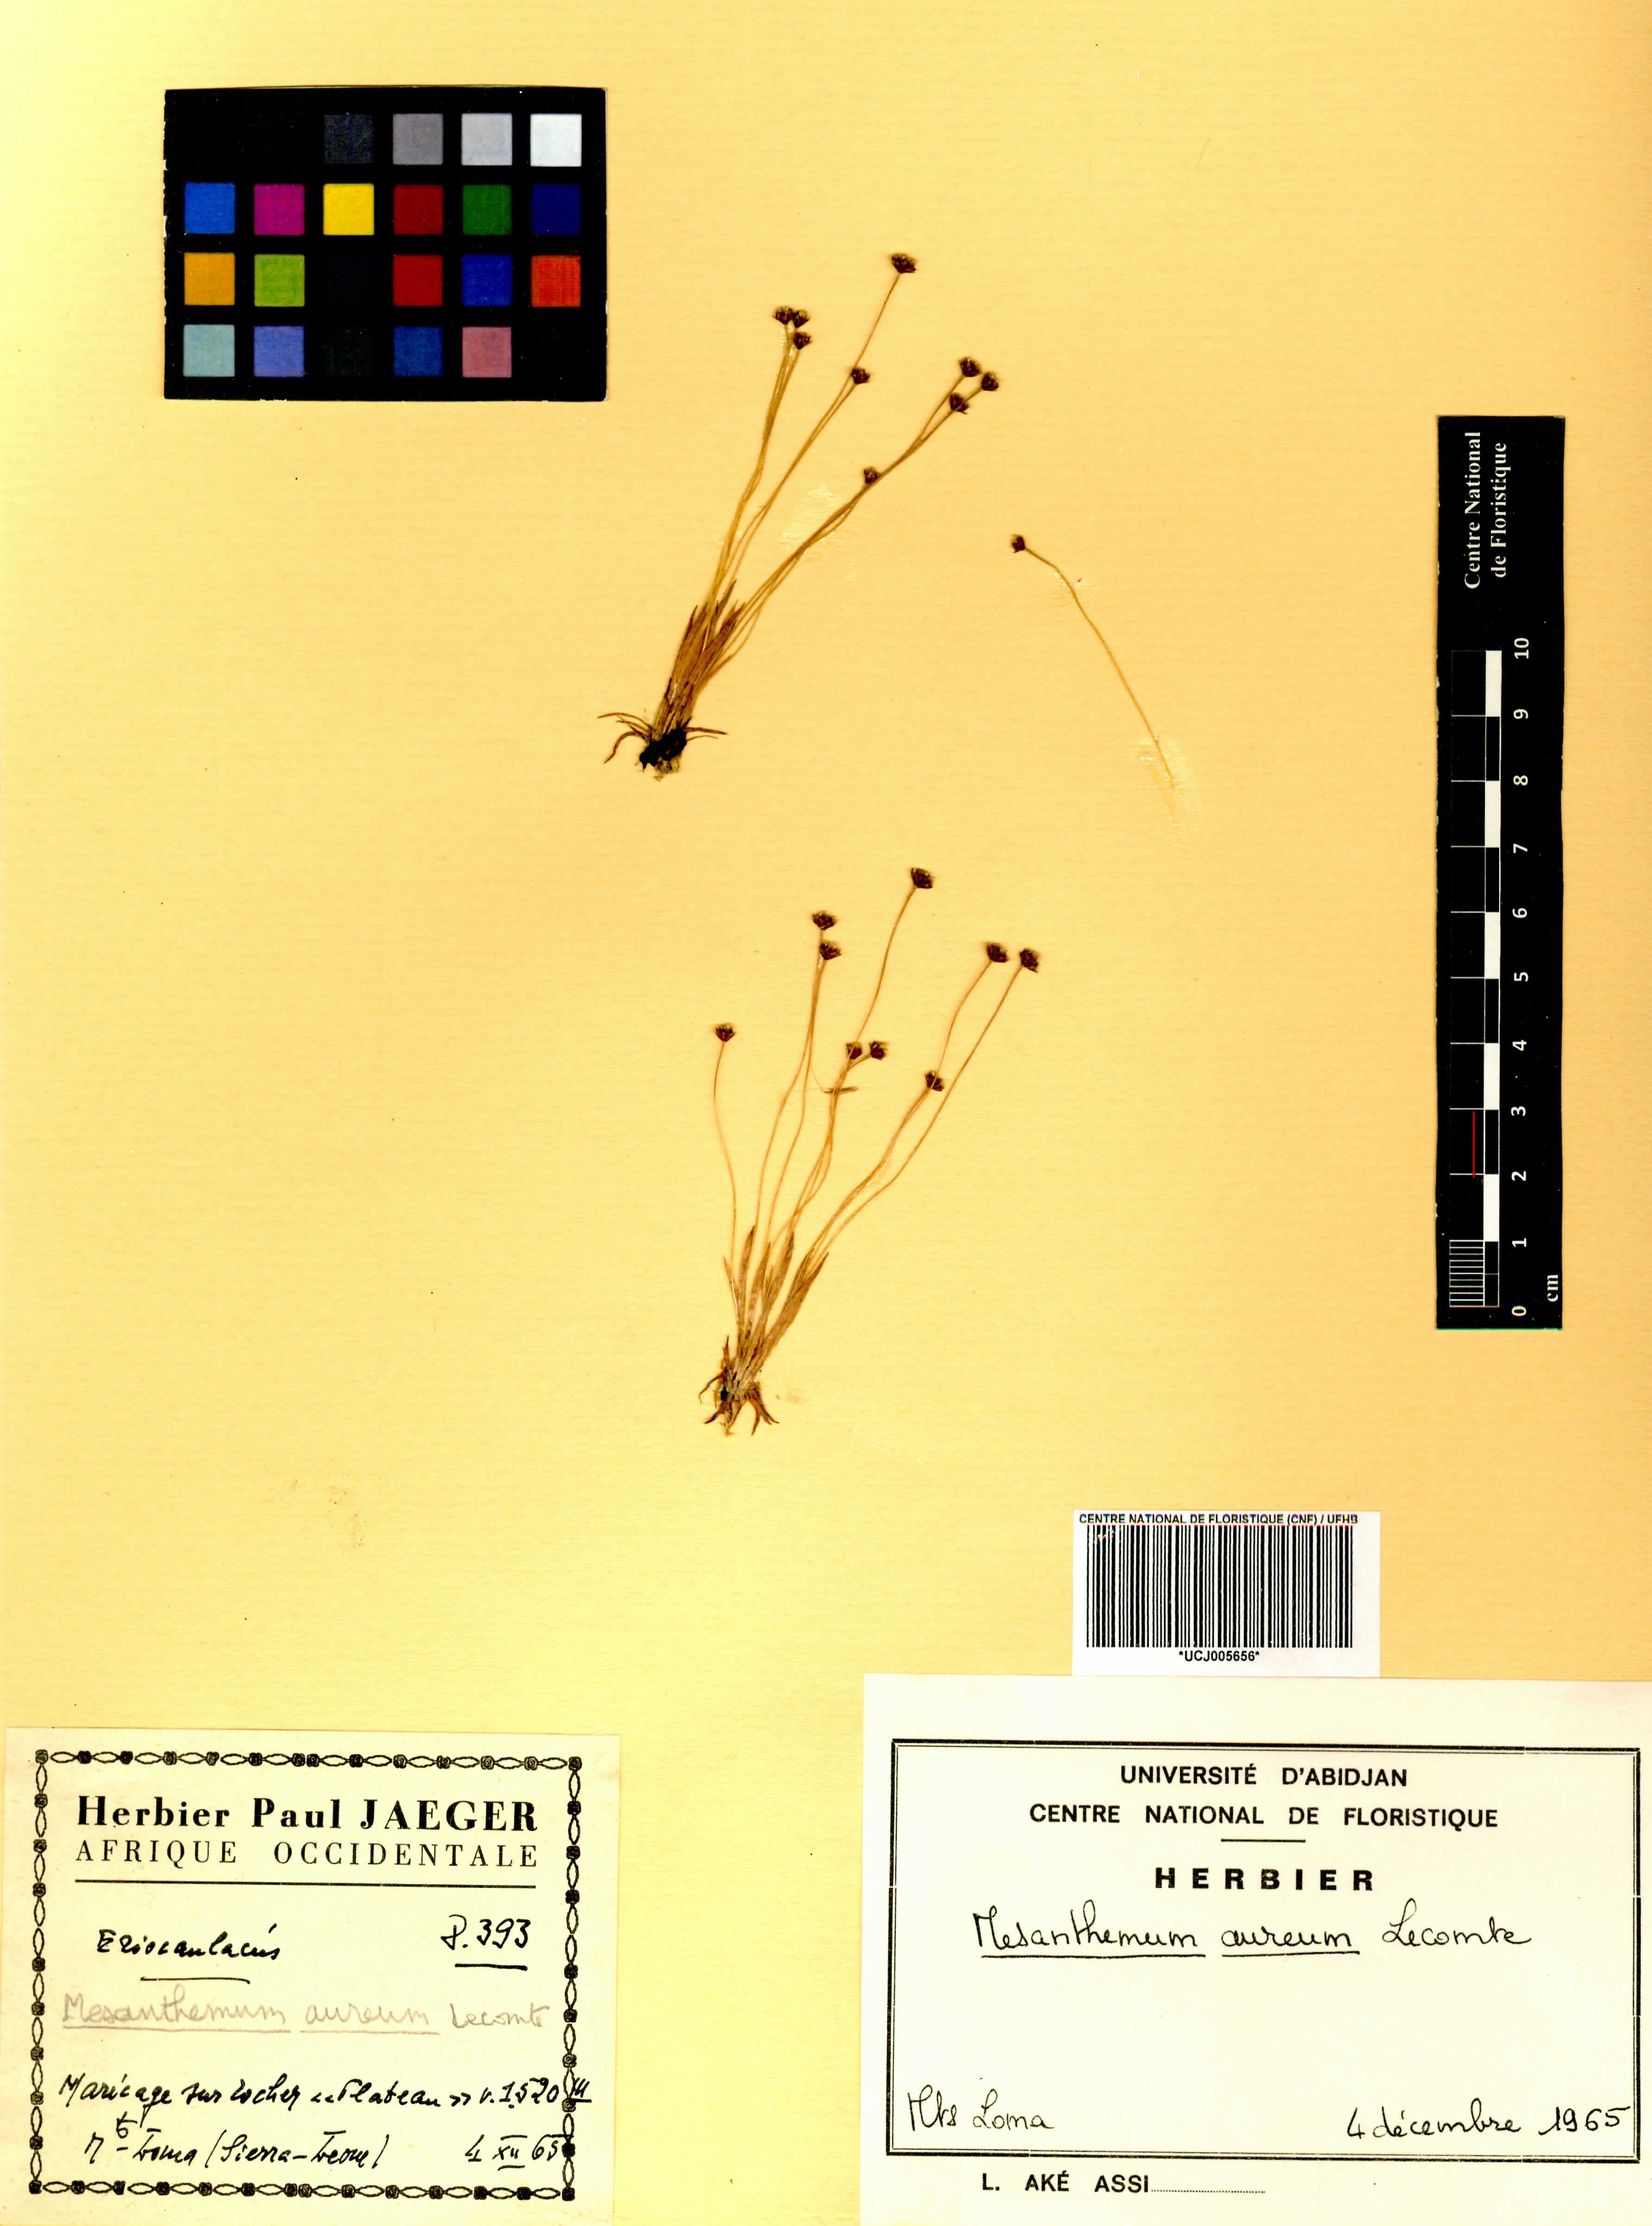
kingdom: Plantae
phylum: Tracheophyta
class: Liliopsida
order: Poales
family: Eriocaulaceae
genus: Mesanthemum
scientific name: Mesanthemum auratum
